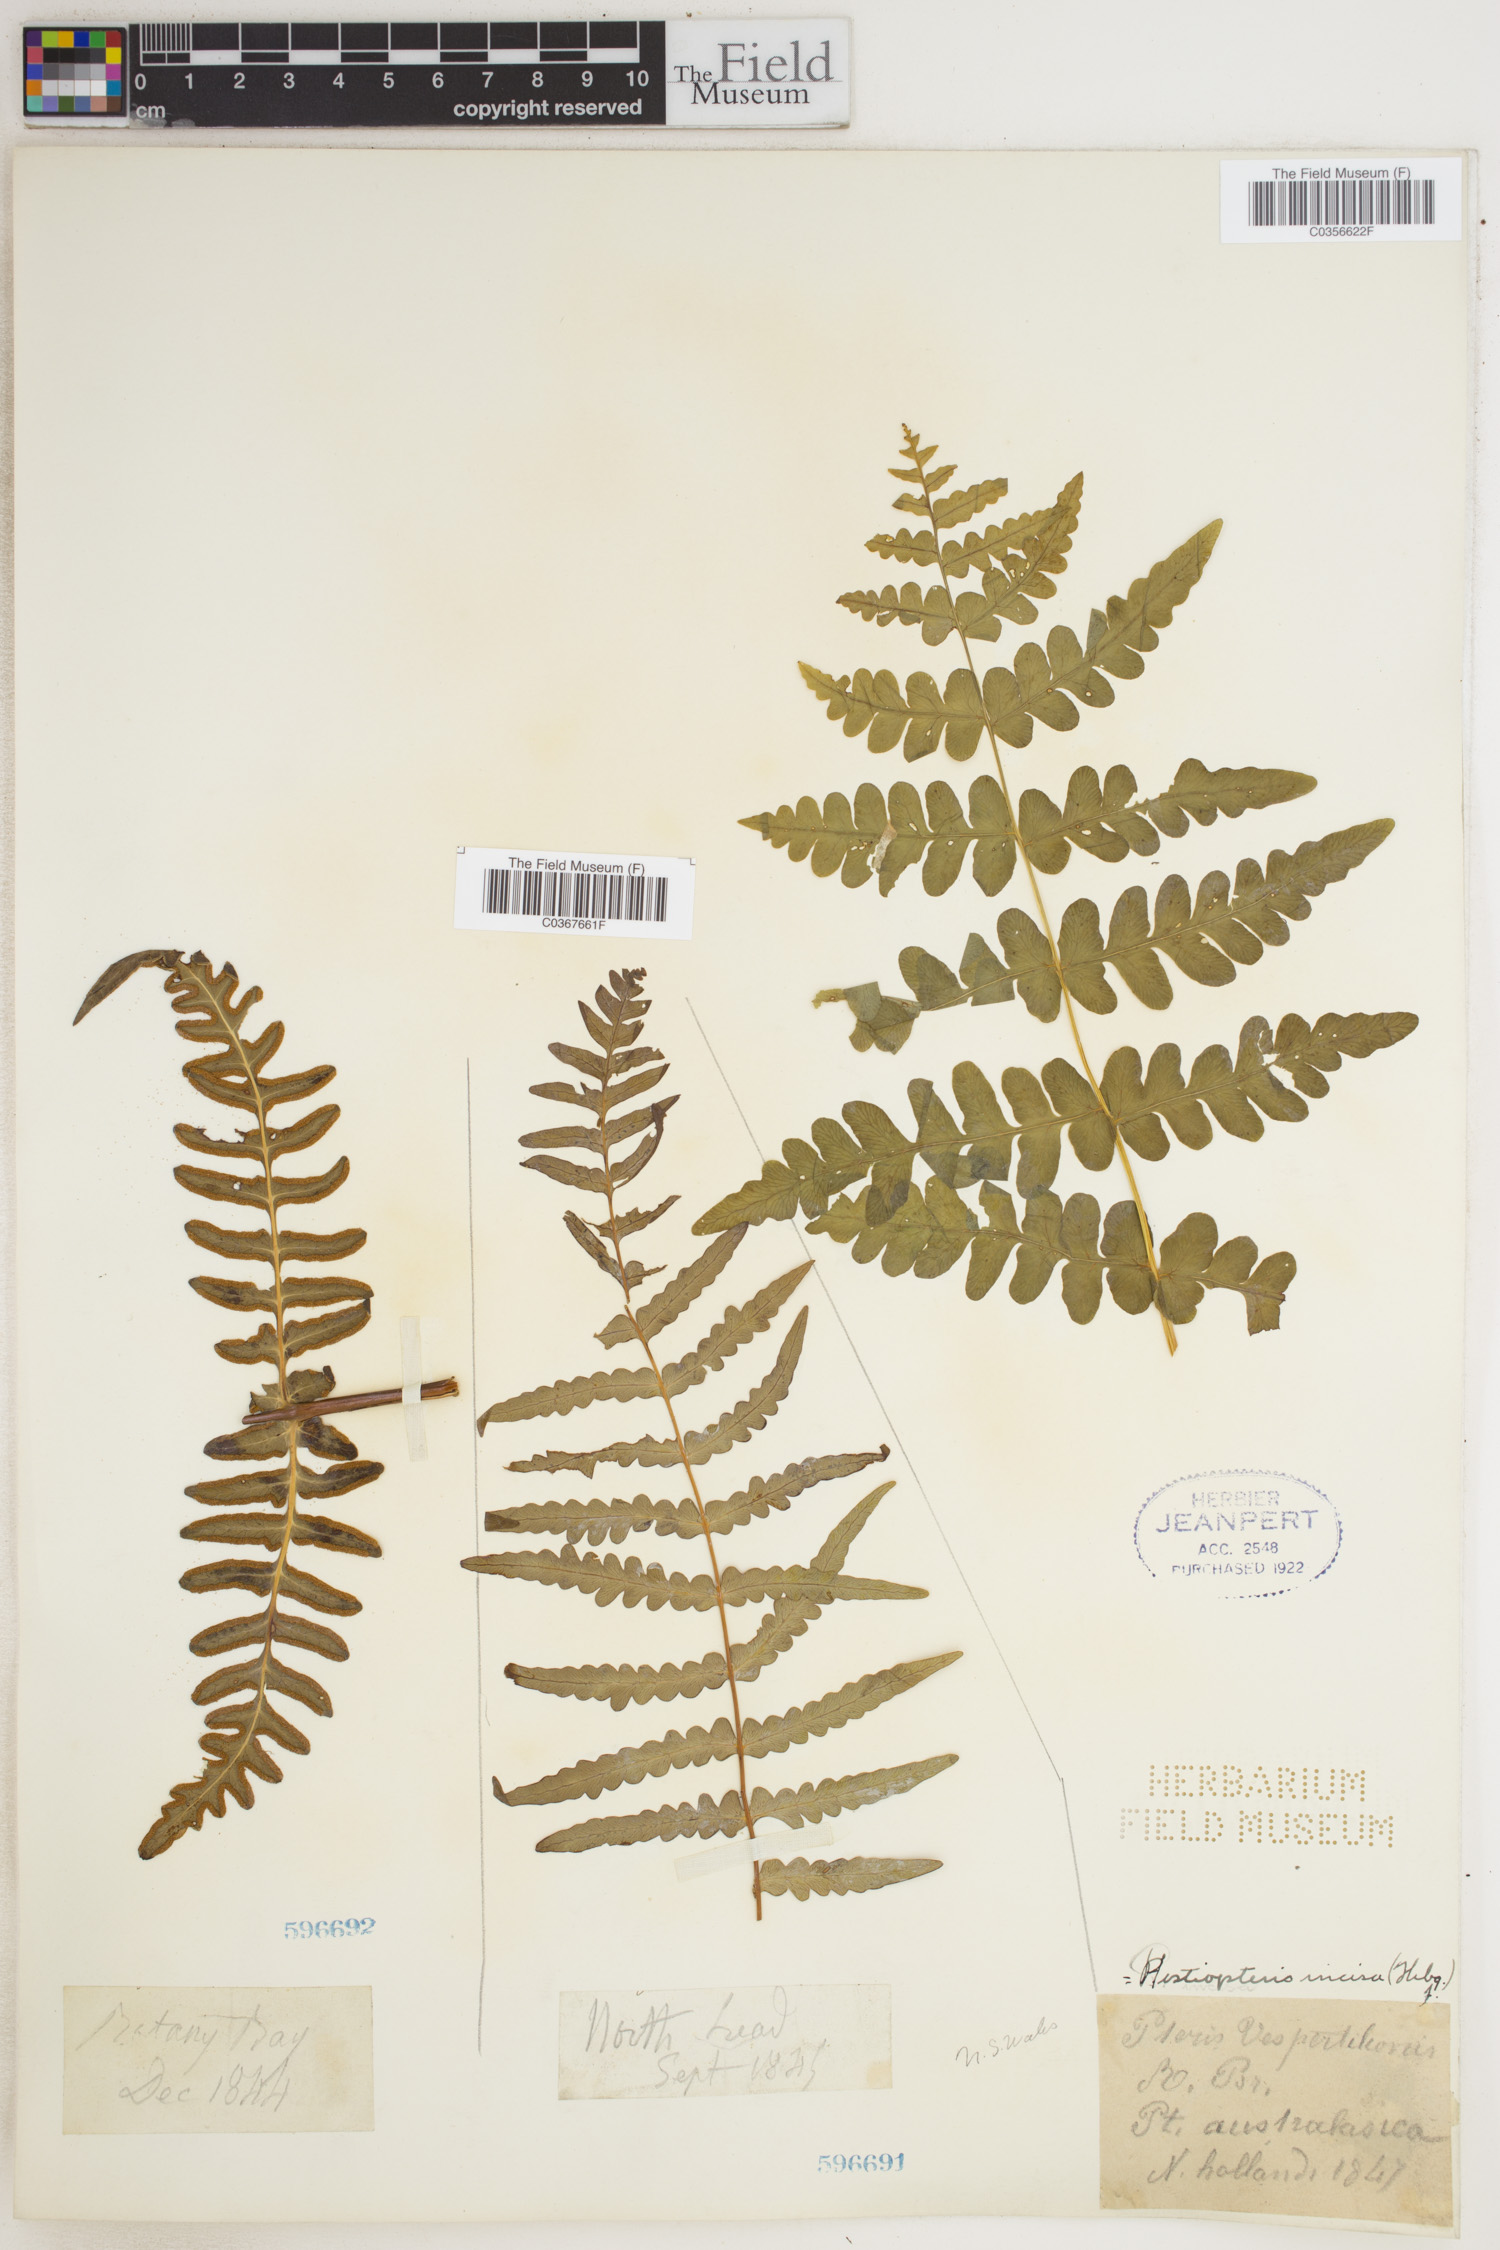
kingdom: Plantae
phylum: Tracheophyta
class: Polypodiopsida
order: Polypodiales
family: Dennstaedtiaceae
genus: Histiopteris
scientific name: Histiopteris incisa
